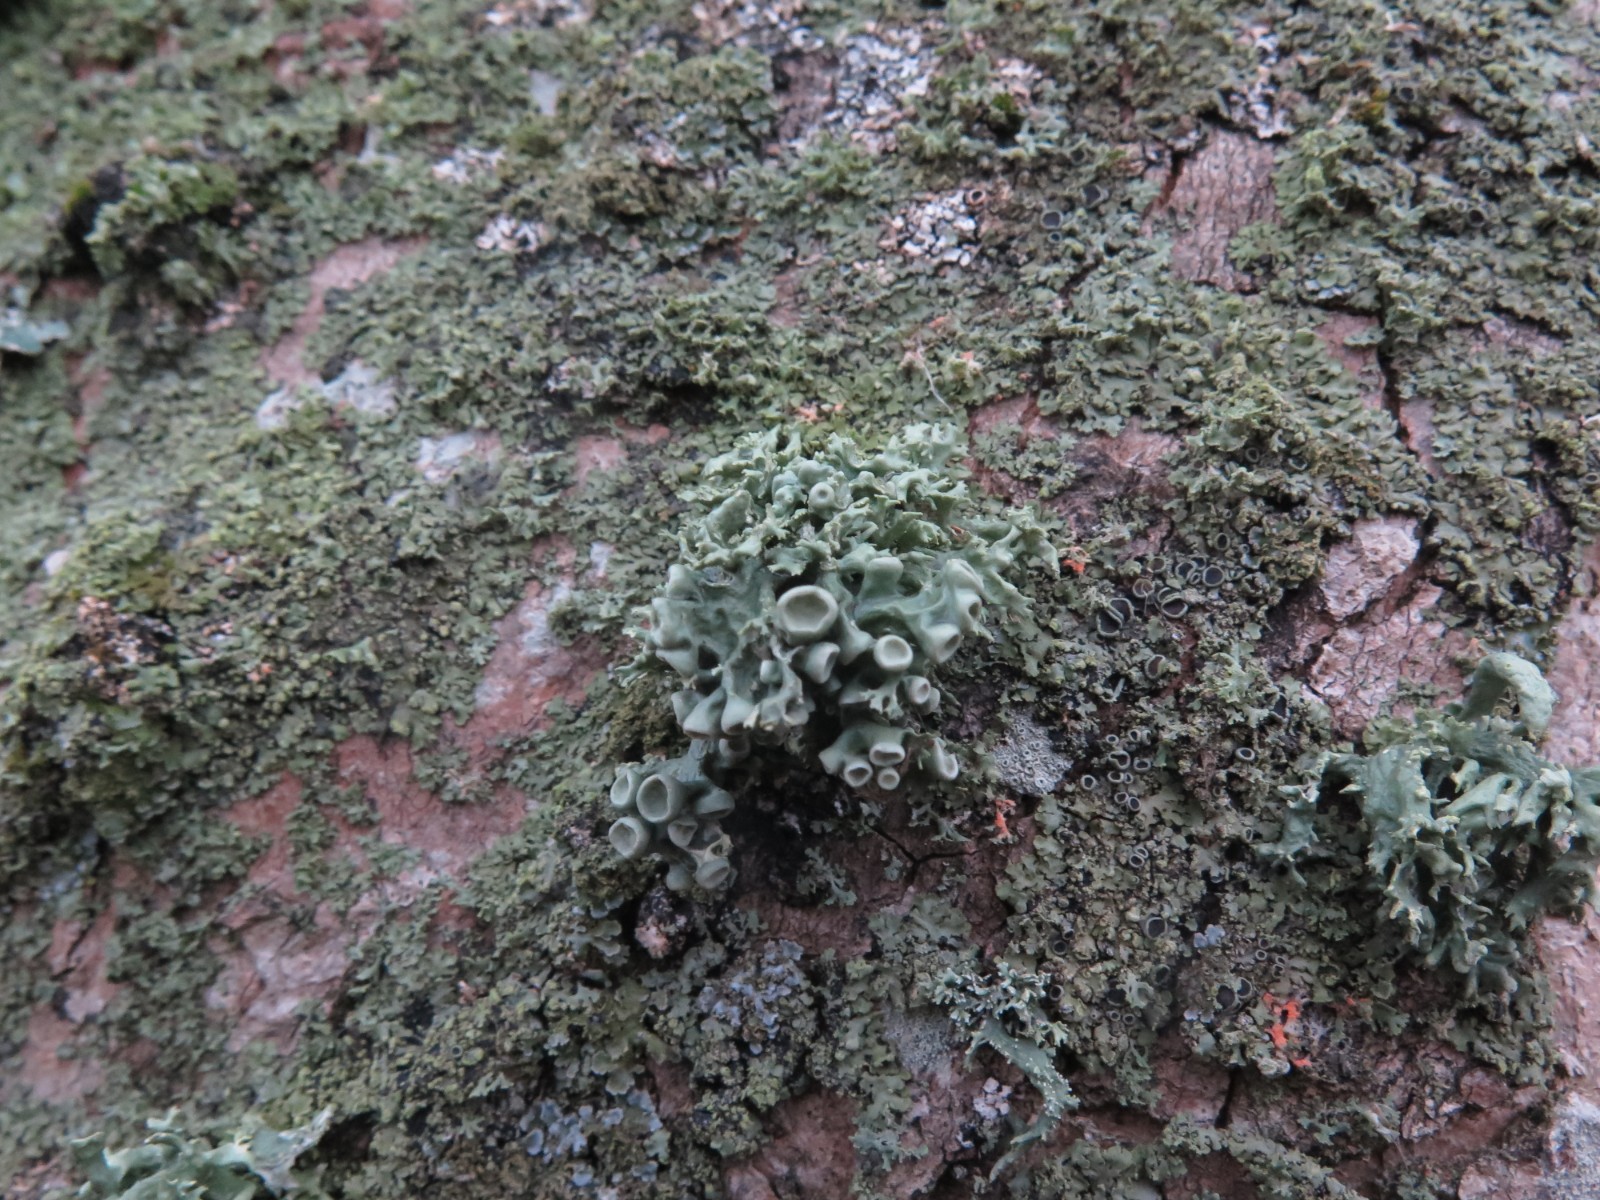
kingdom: Fungi
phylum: Ascomycota
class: Lecanoromycetes
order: Lecanorales
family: Ramalinaceae
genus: Ramalina
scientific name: Ramalina fastigiata
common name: tue-grenlav
